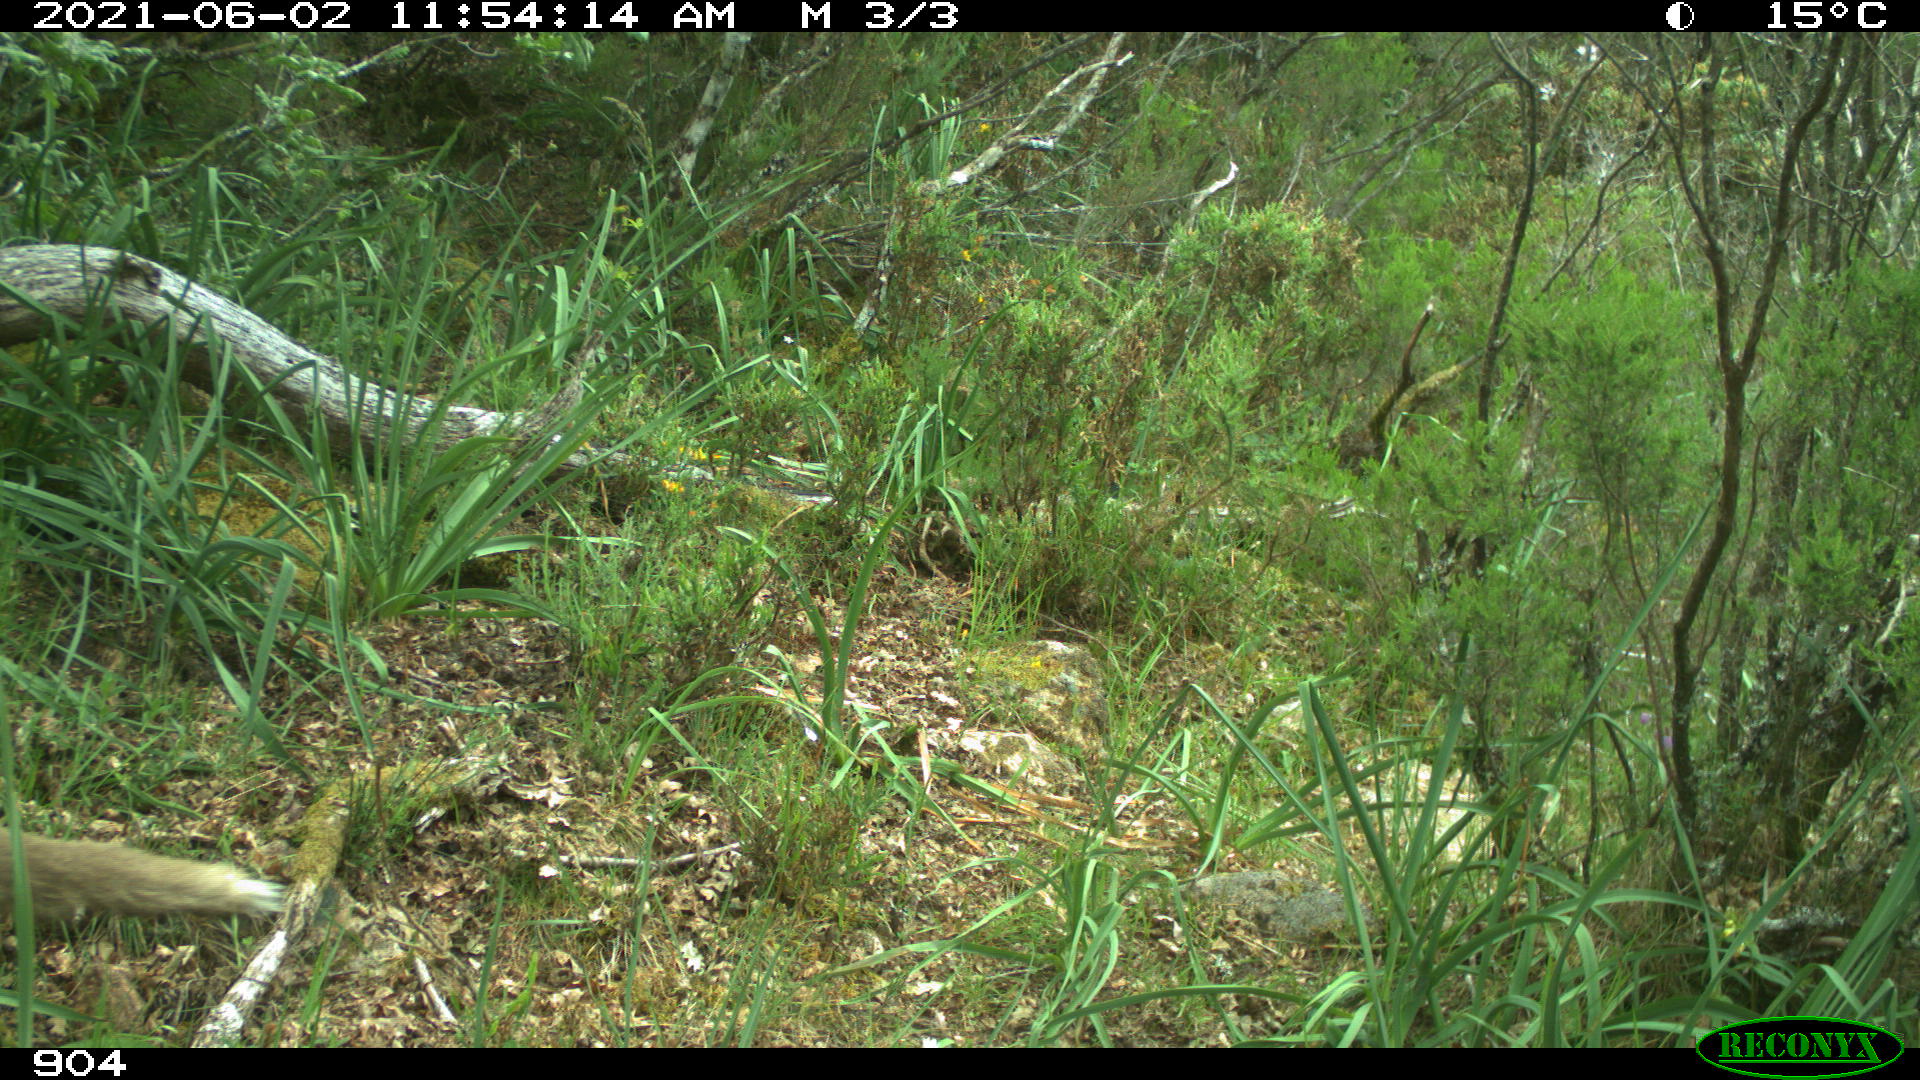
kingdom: Animalia
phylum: Chordata
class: Mammalia
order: Carnivora
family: Canidae
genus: Vulpes
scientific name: Vulpes vulpes
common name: Red fox
